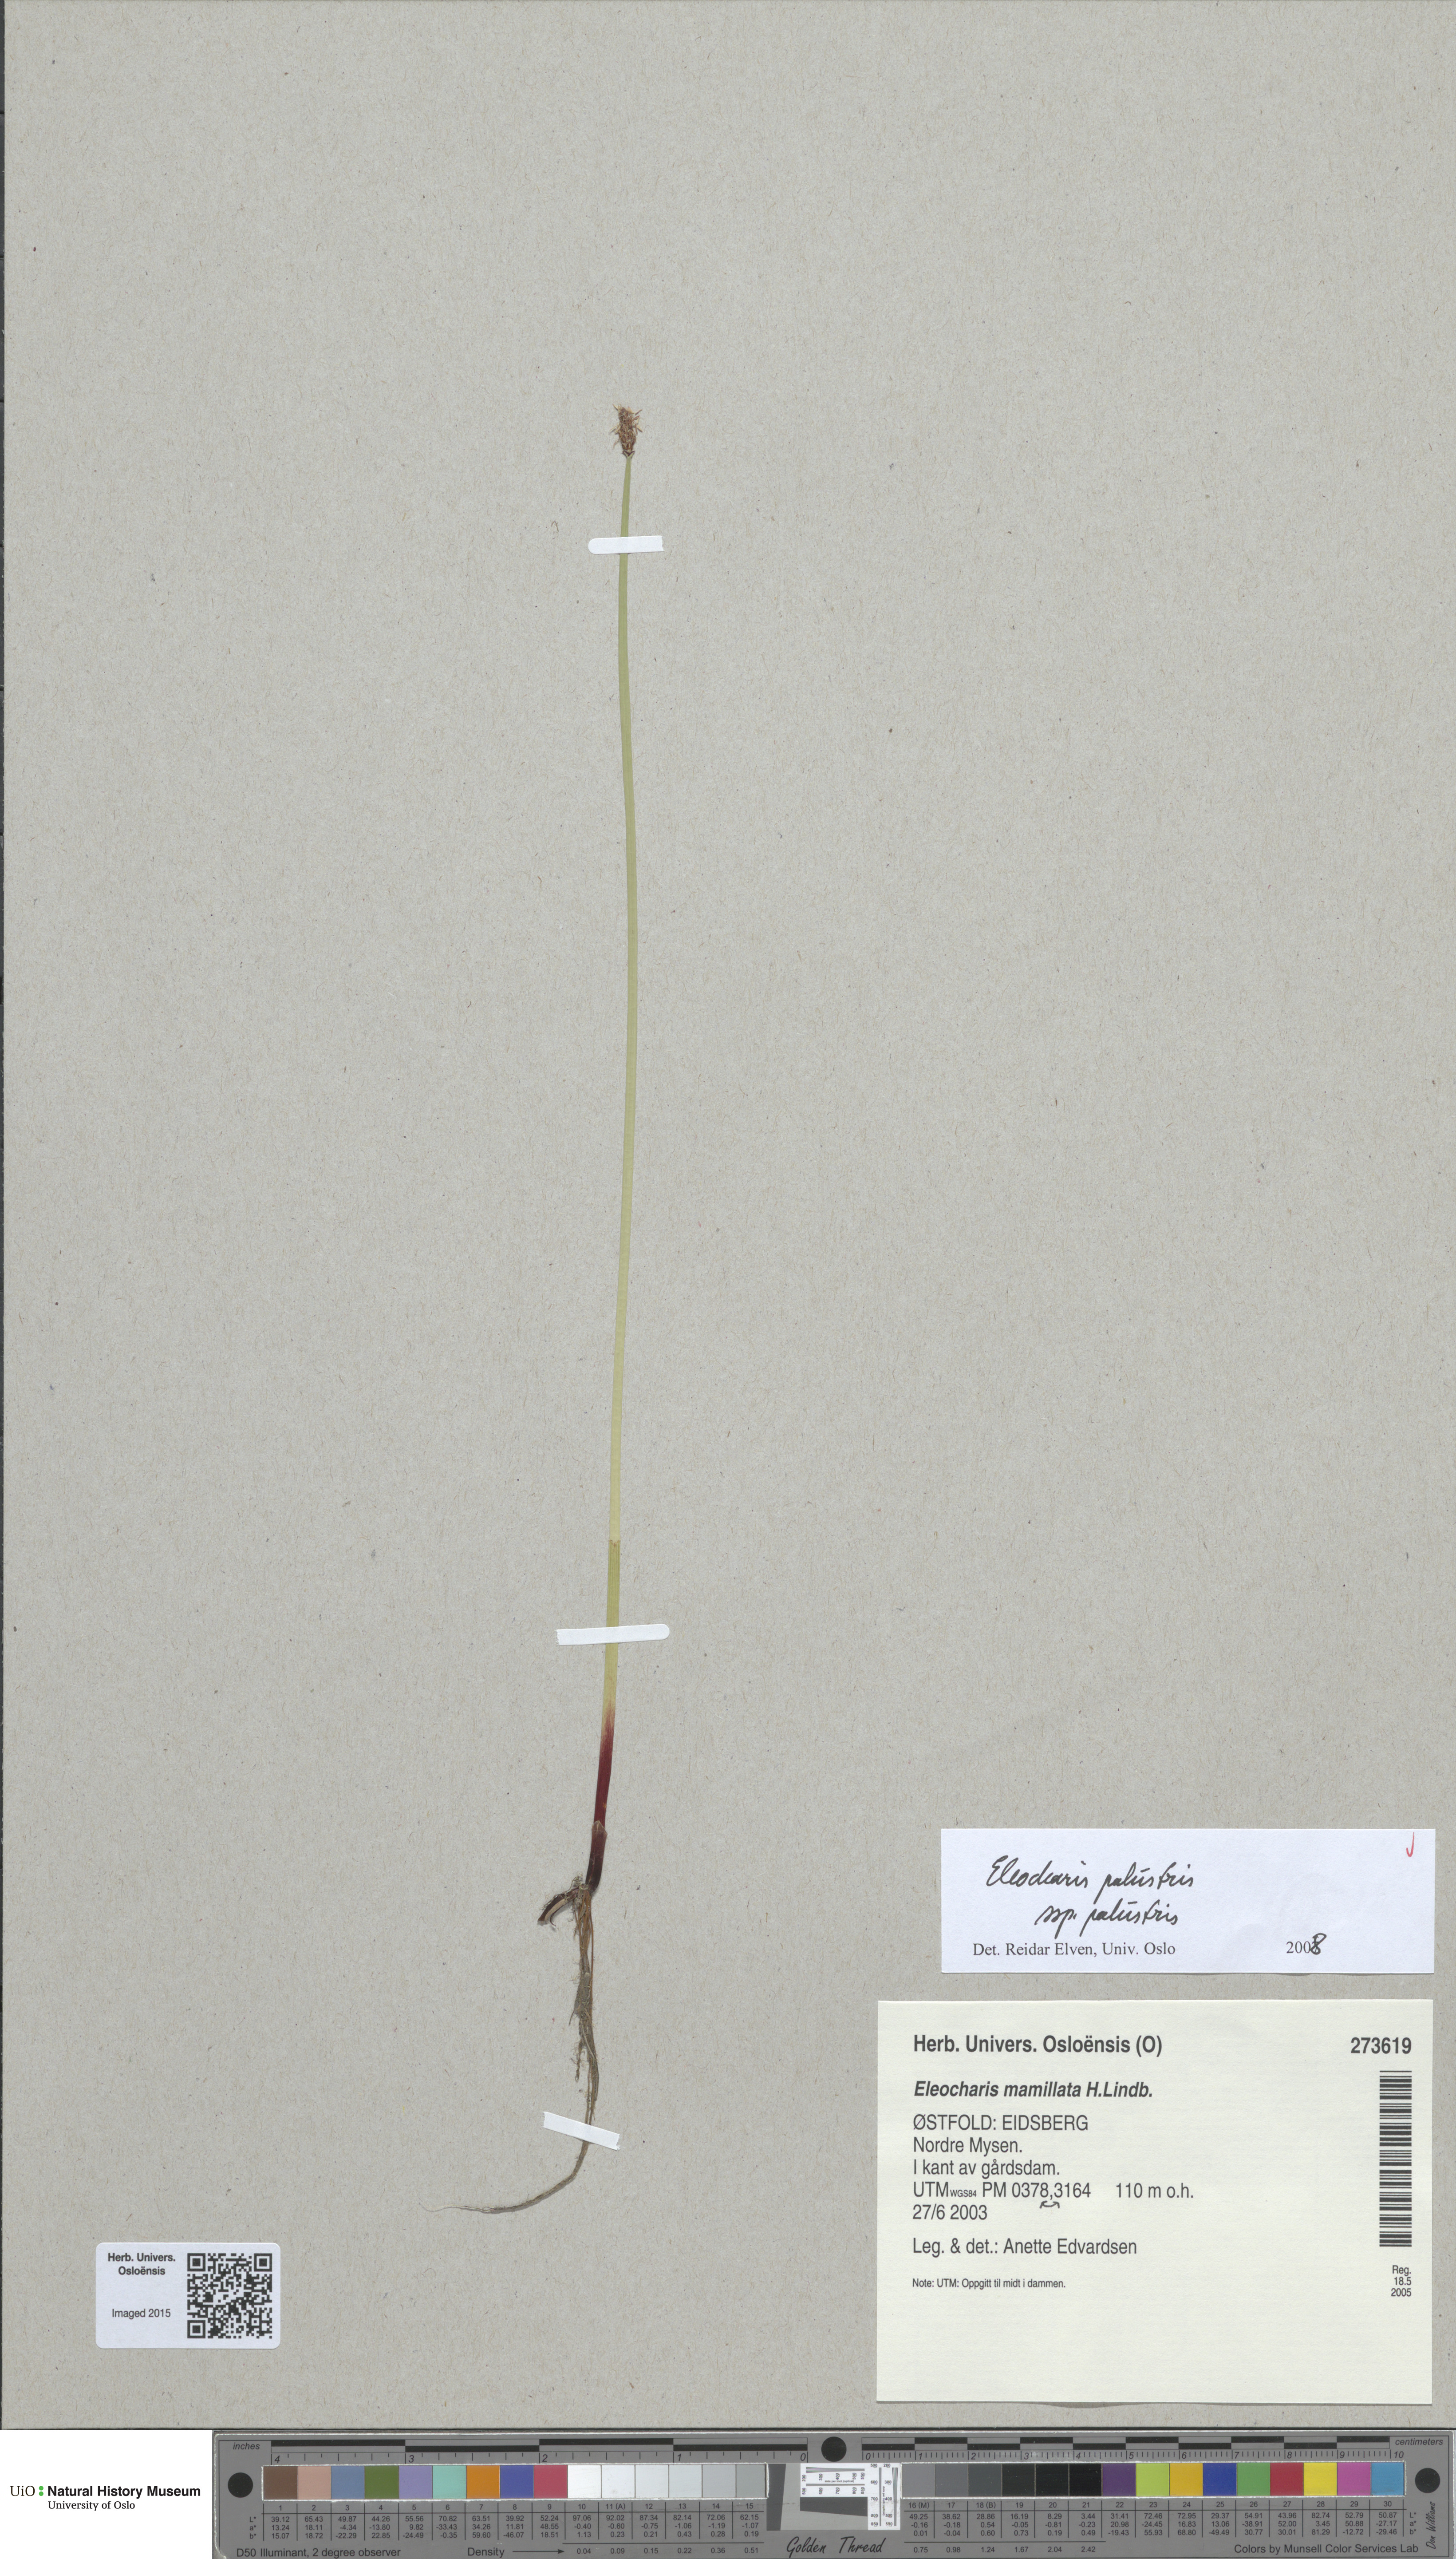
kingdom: Plantae
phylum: Tracheophyta
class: Liliopsida
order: Poales
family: Cyperaceae
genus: Eleocharis
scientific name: Eleocharis palustris
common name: Common spike-rush
